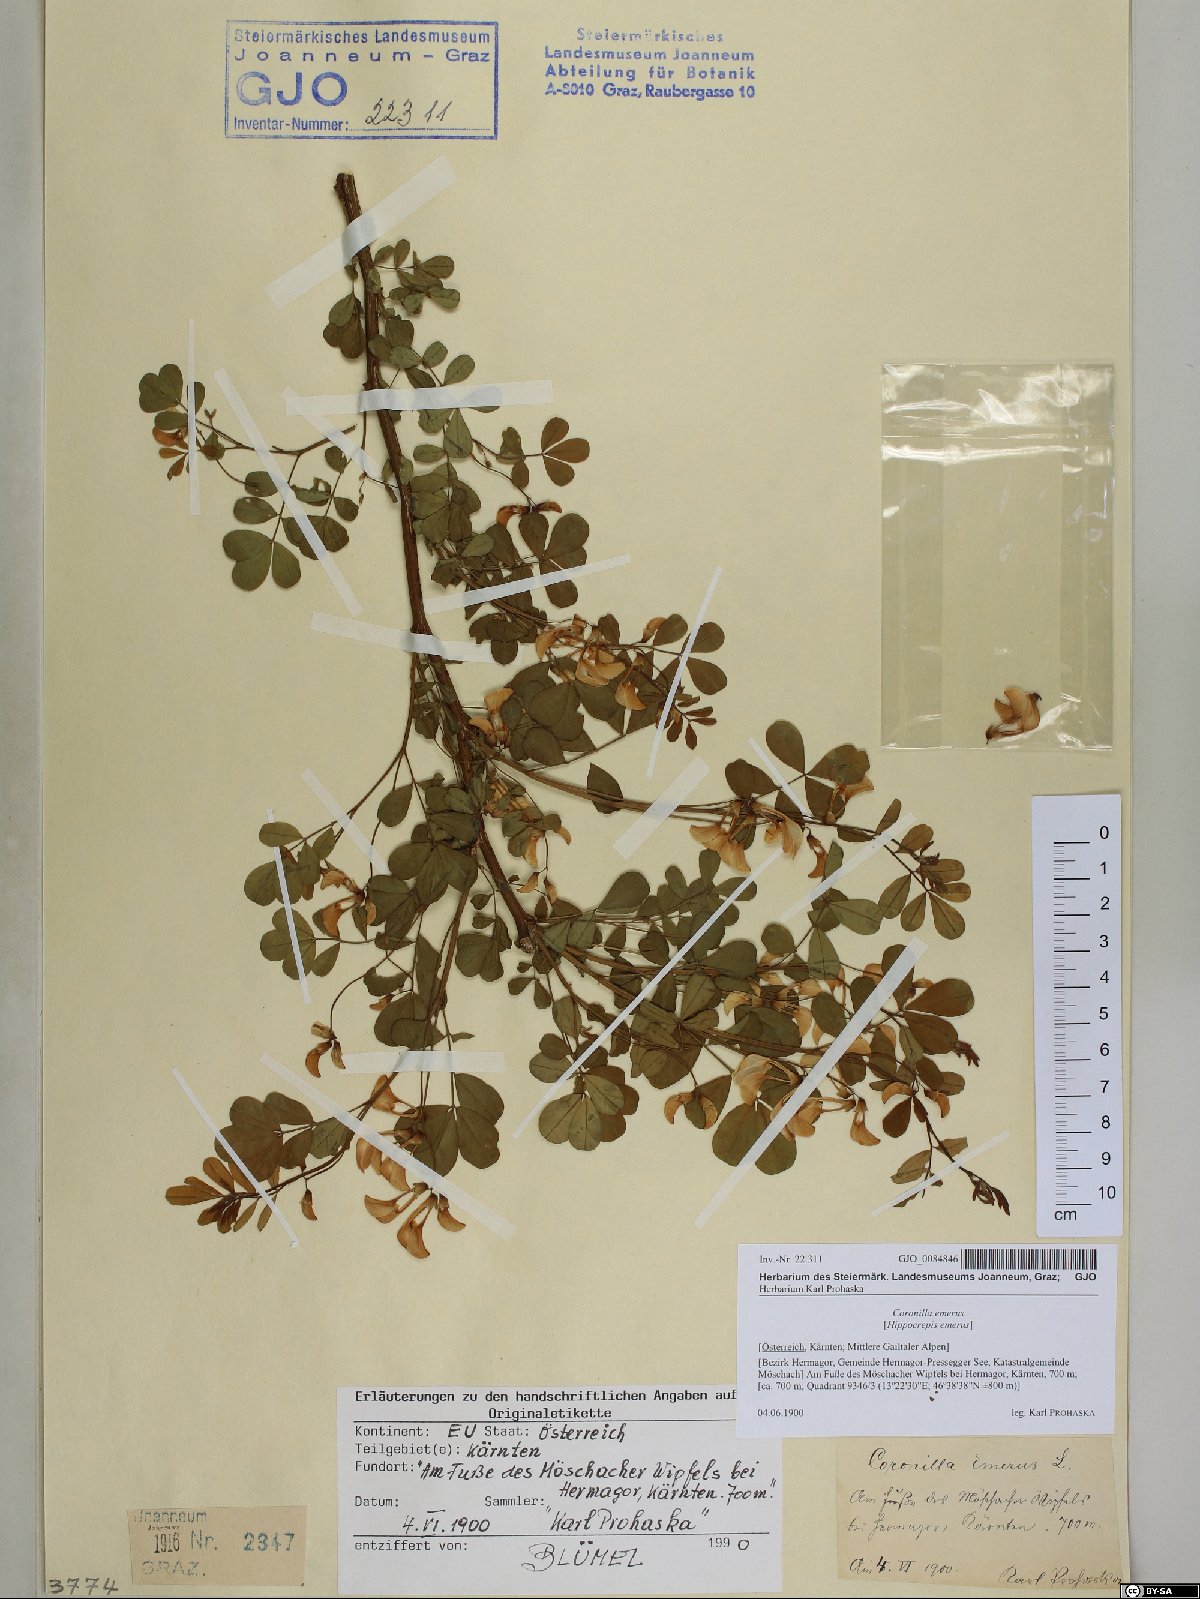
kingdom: Plantae
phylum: Tracheophyta
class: Magnoliopsida
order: Fabales
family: Fabaceae
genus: Hippocrepis
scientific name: Hippocrepis emerus
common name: Scorpion senna
